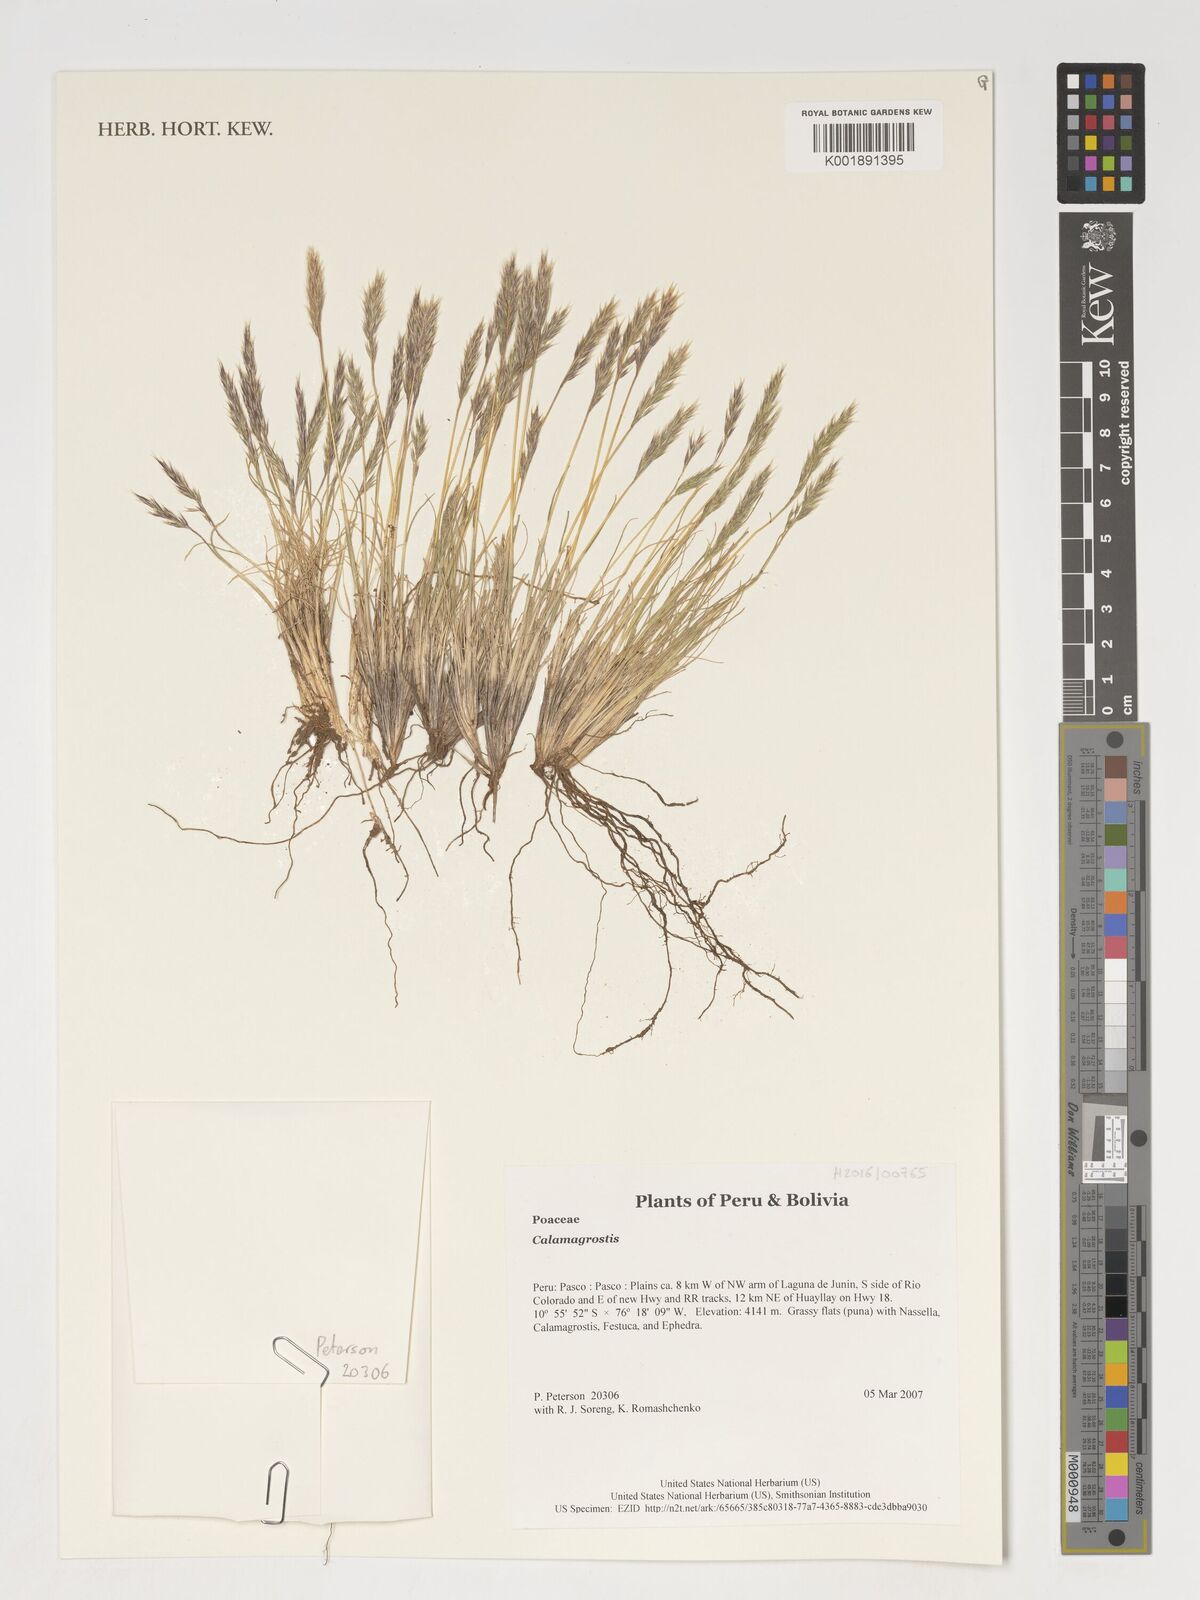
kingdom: Plantae
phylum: Tracheophyta
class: Liliopsida
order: Poales
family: Poaceae
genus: Calamagrostis
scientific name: Calamagrostis
